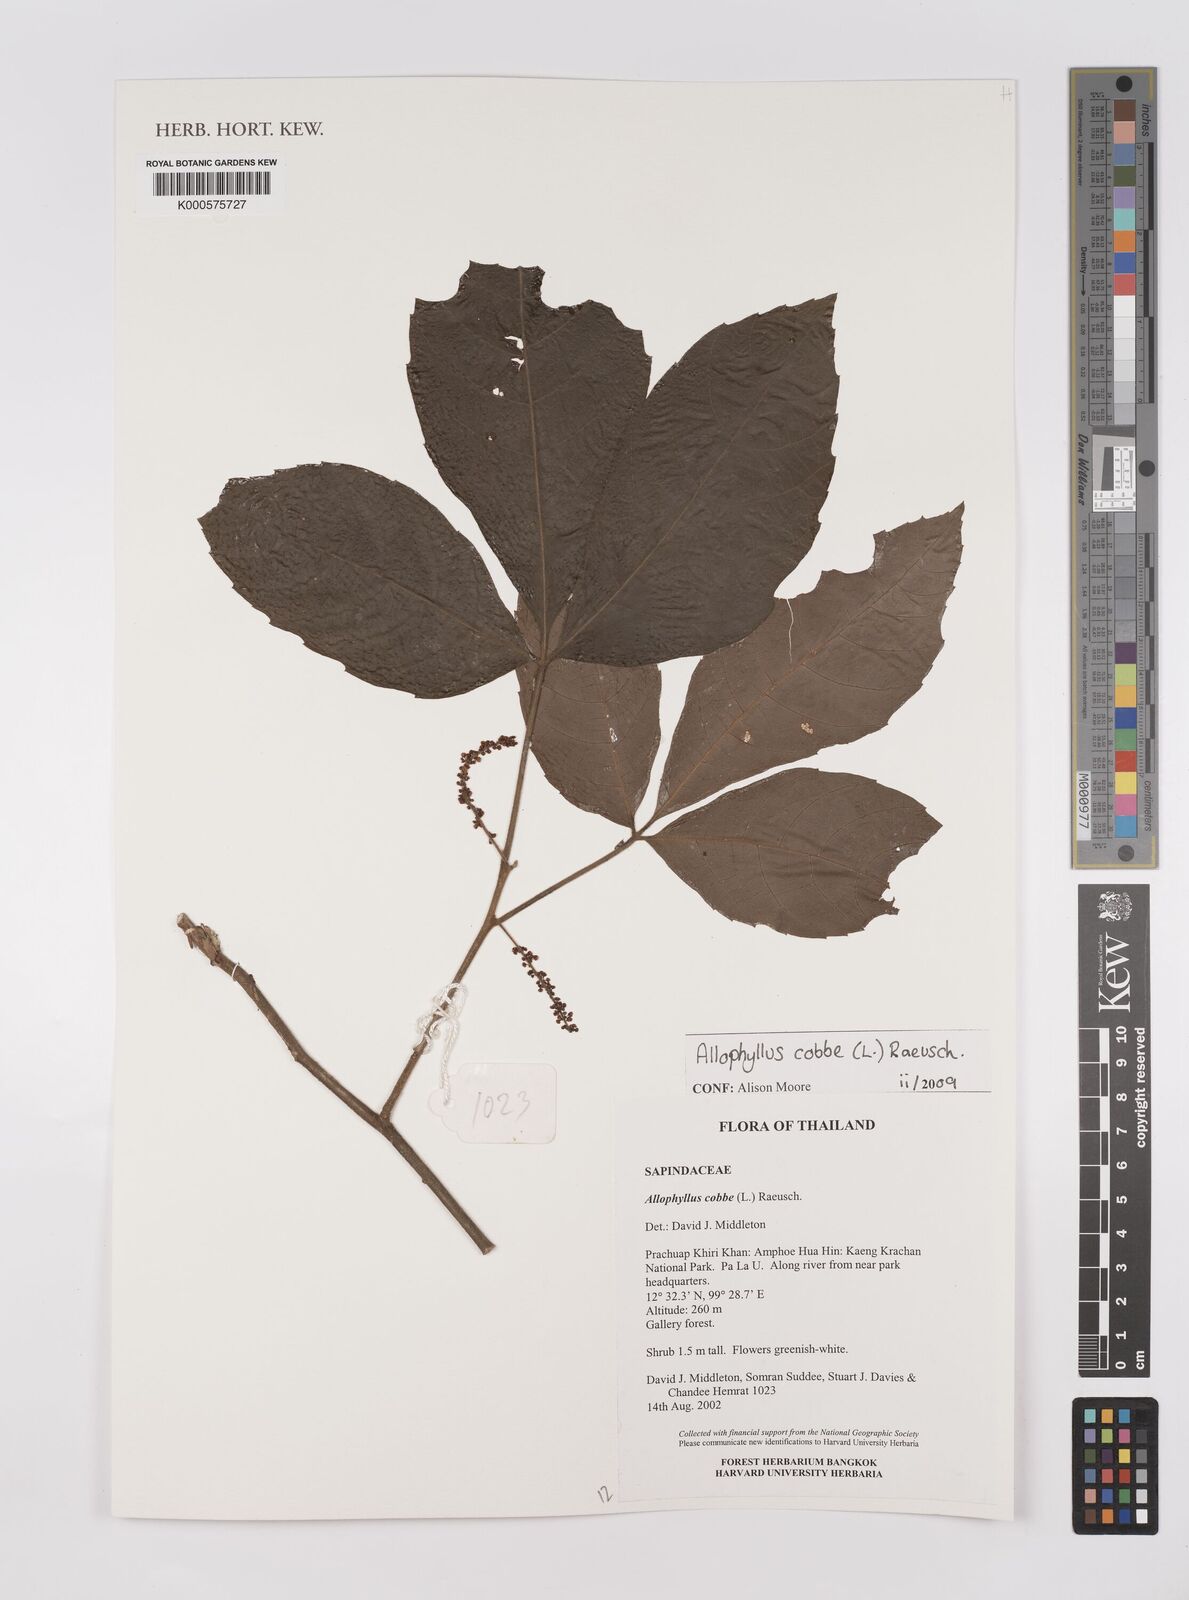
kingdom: Plantae
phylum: Tracheophyta
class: Magnoliopsida
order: Sapindales
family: Sapindaceae
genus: Allophylus
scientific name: Allophylus
